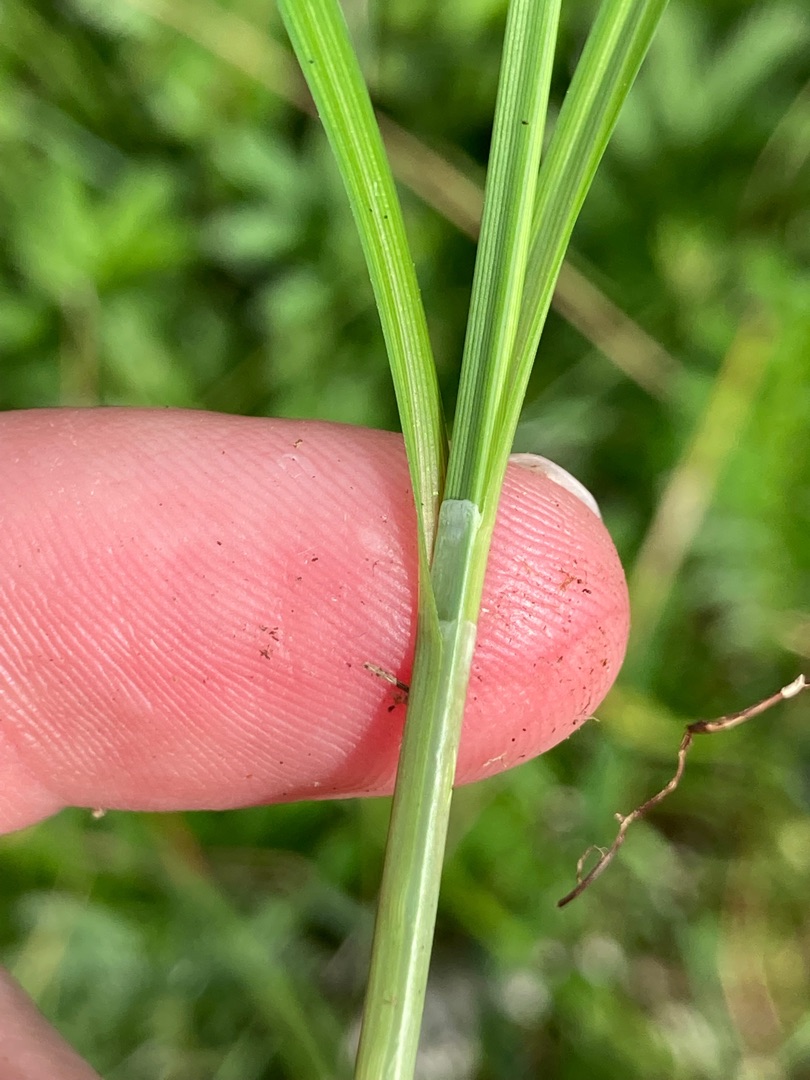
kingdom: Plantae
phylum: Tracheophyta
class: Liliopsida
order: Poales
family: Cyperaceae
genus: Carex
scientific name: Carex hostiana
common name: Skede-star
